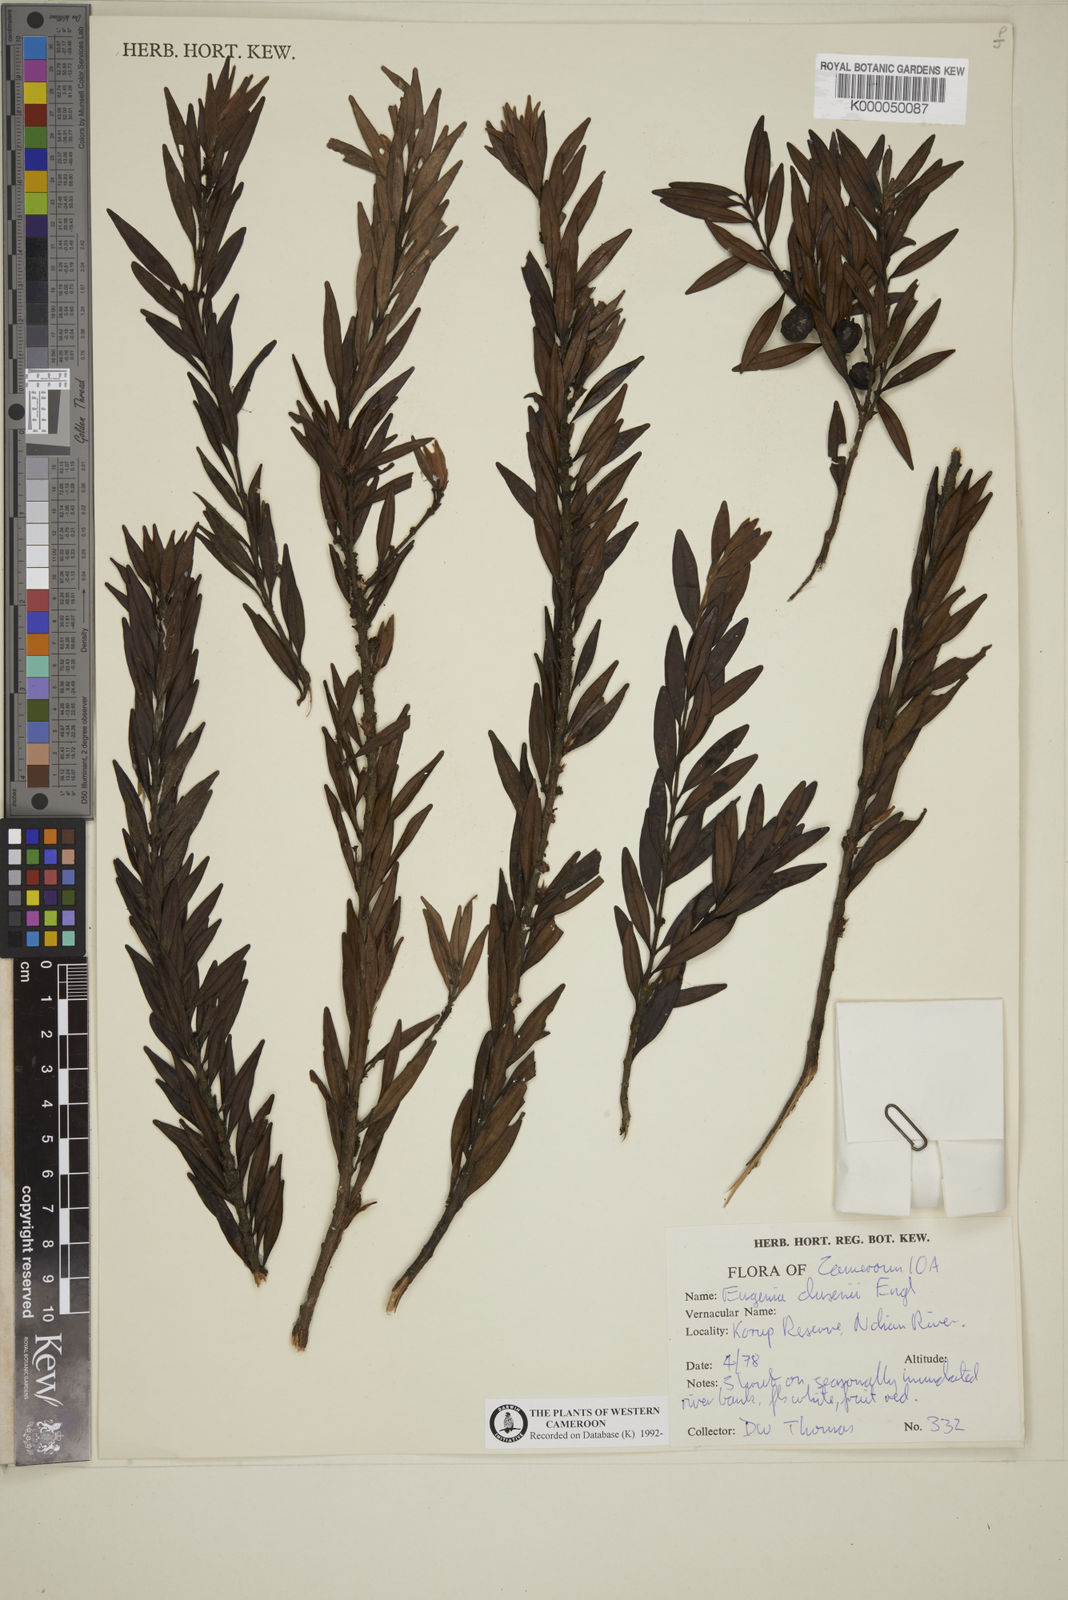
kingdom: Plantae
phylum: Tracheophyta
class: Magnoliopsida
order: Myrtales
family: Myrtaceae
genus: Eugenia
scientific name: Eugenia dusenii
